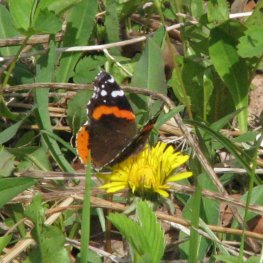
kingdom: Animalia
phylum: Arthropoda
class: Insecta
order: Lepidoptera
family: Nymphalidae
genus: Vanessa
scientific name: Vanessa atalanta
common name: Red Admiral
